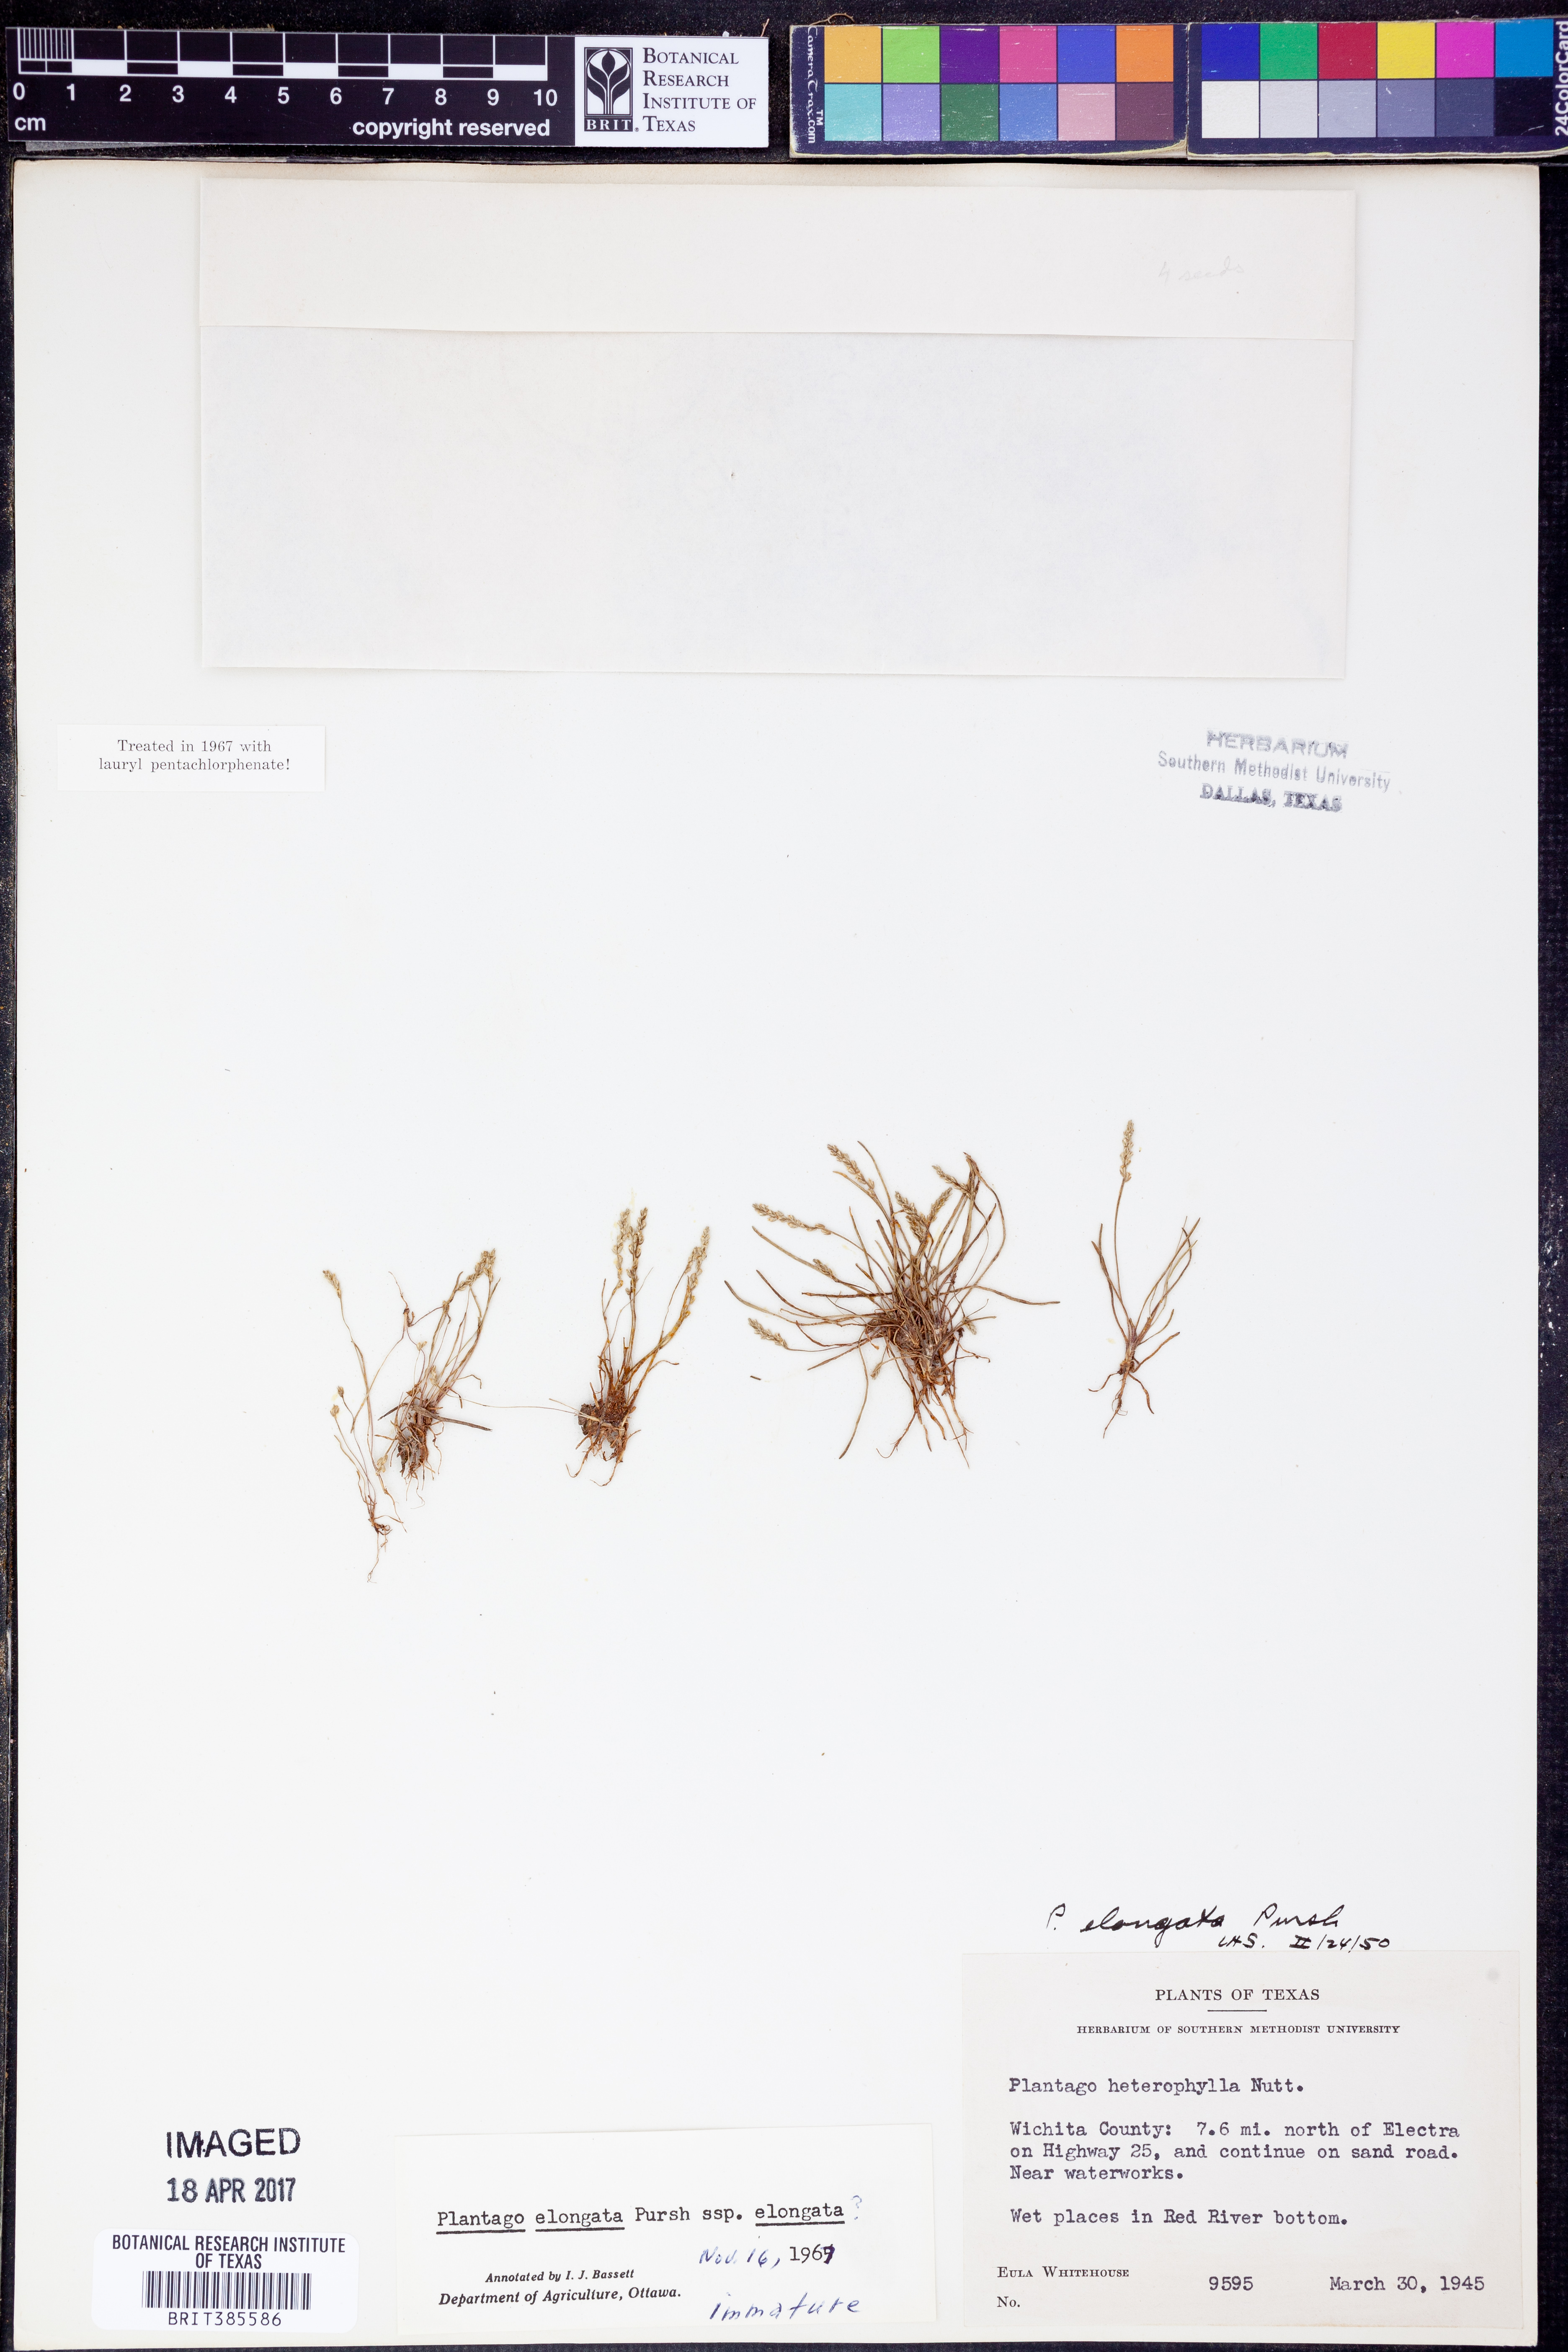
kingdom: Plantae
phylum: Tracheophyta
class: Magnoliopsida
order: Lamiales
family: Plantaginaceae
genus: Plantago
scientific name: Plantago elongata
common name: Linear-leaved plantain
